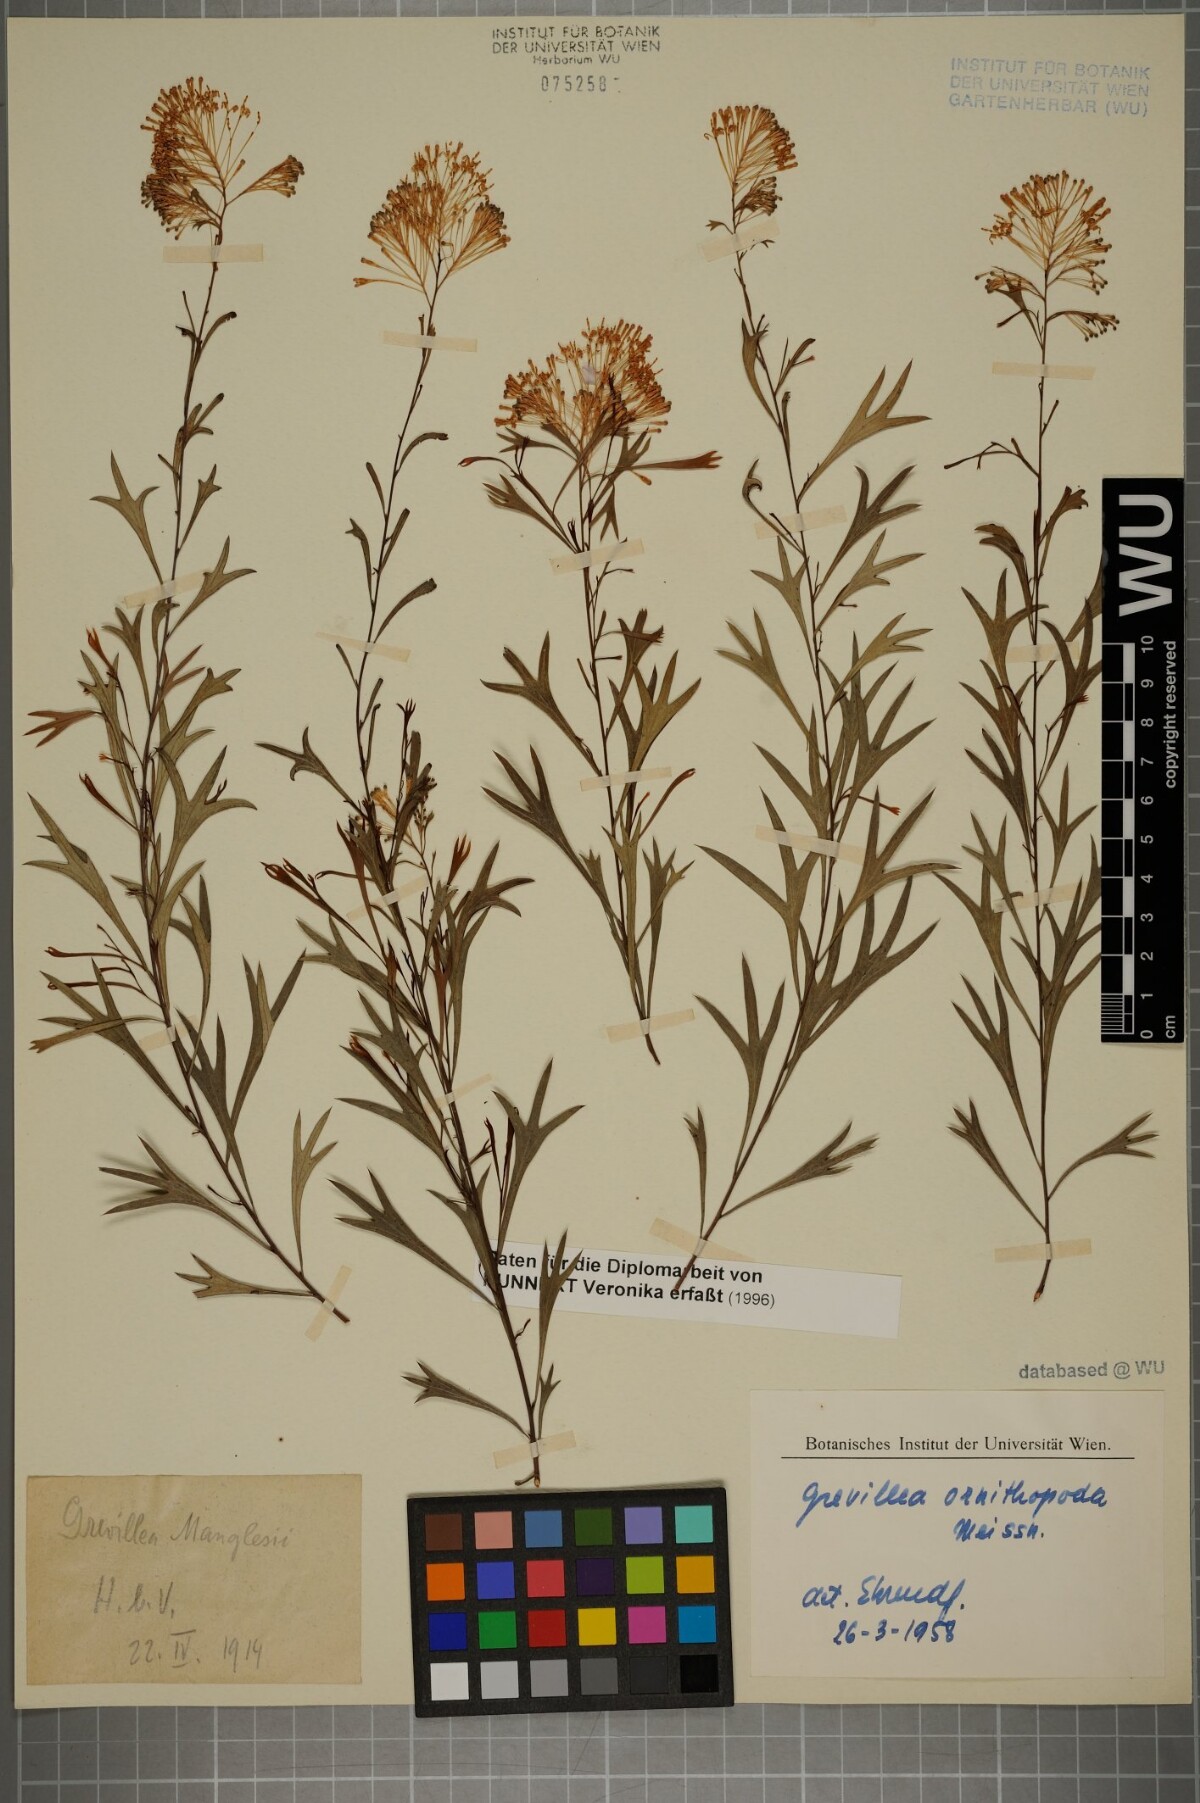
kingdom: Plantae
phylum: Tracheophyta
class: Magnoliopsida
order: Proteales
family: Proteaceae
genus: Grevillea
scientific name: Grevillea manglesii
